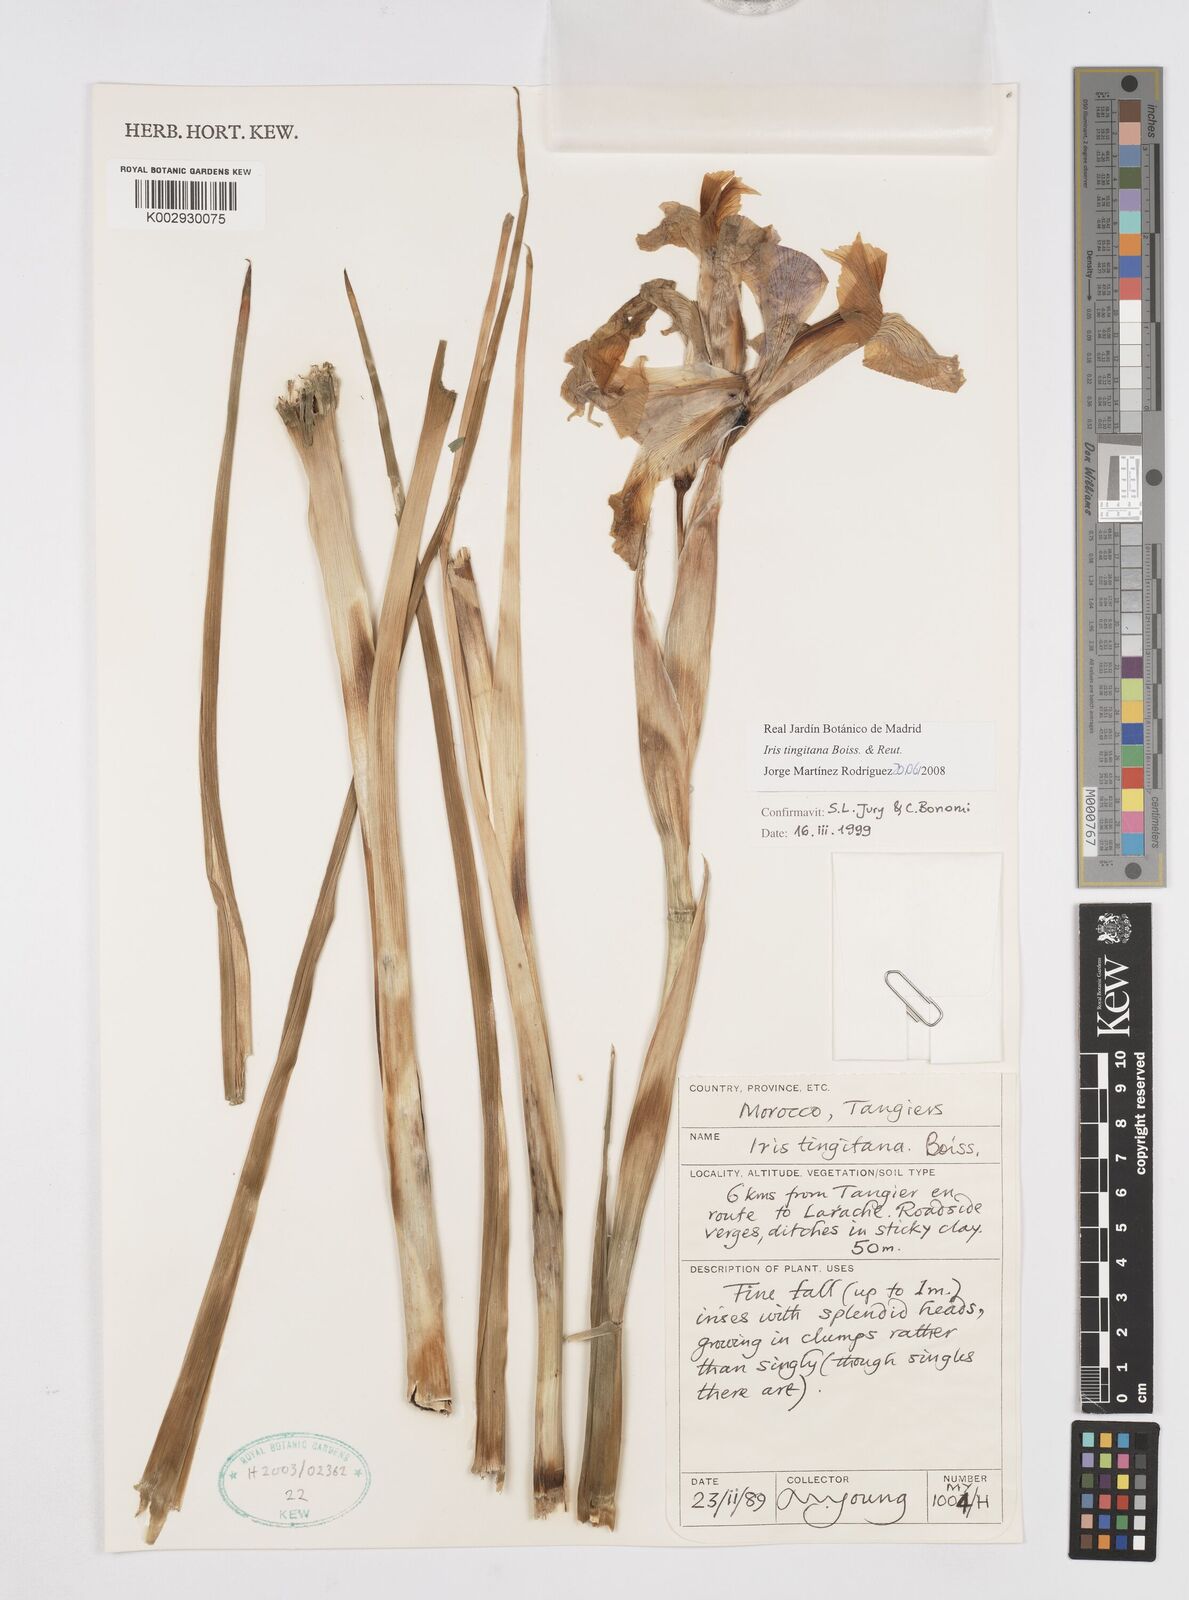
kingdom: Plantae
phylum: Tracheophyta
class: Liliopsida
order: Asparagales
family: Iridaceae
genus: Iris
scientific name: Iris tingitana
